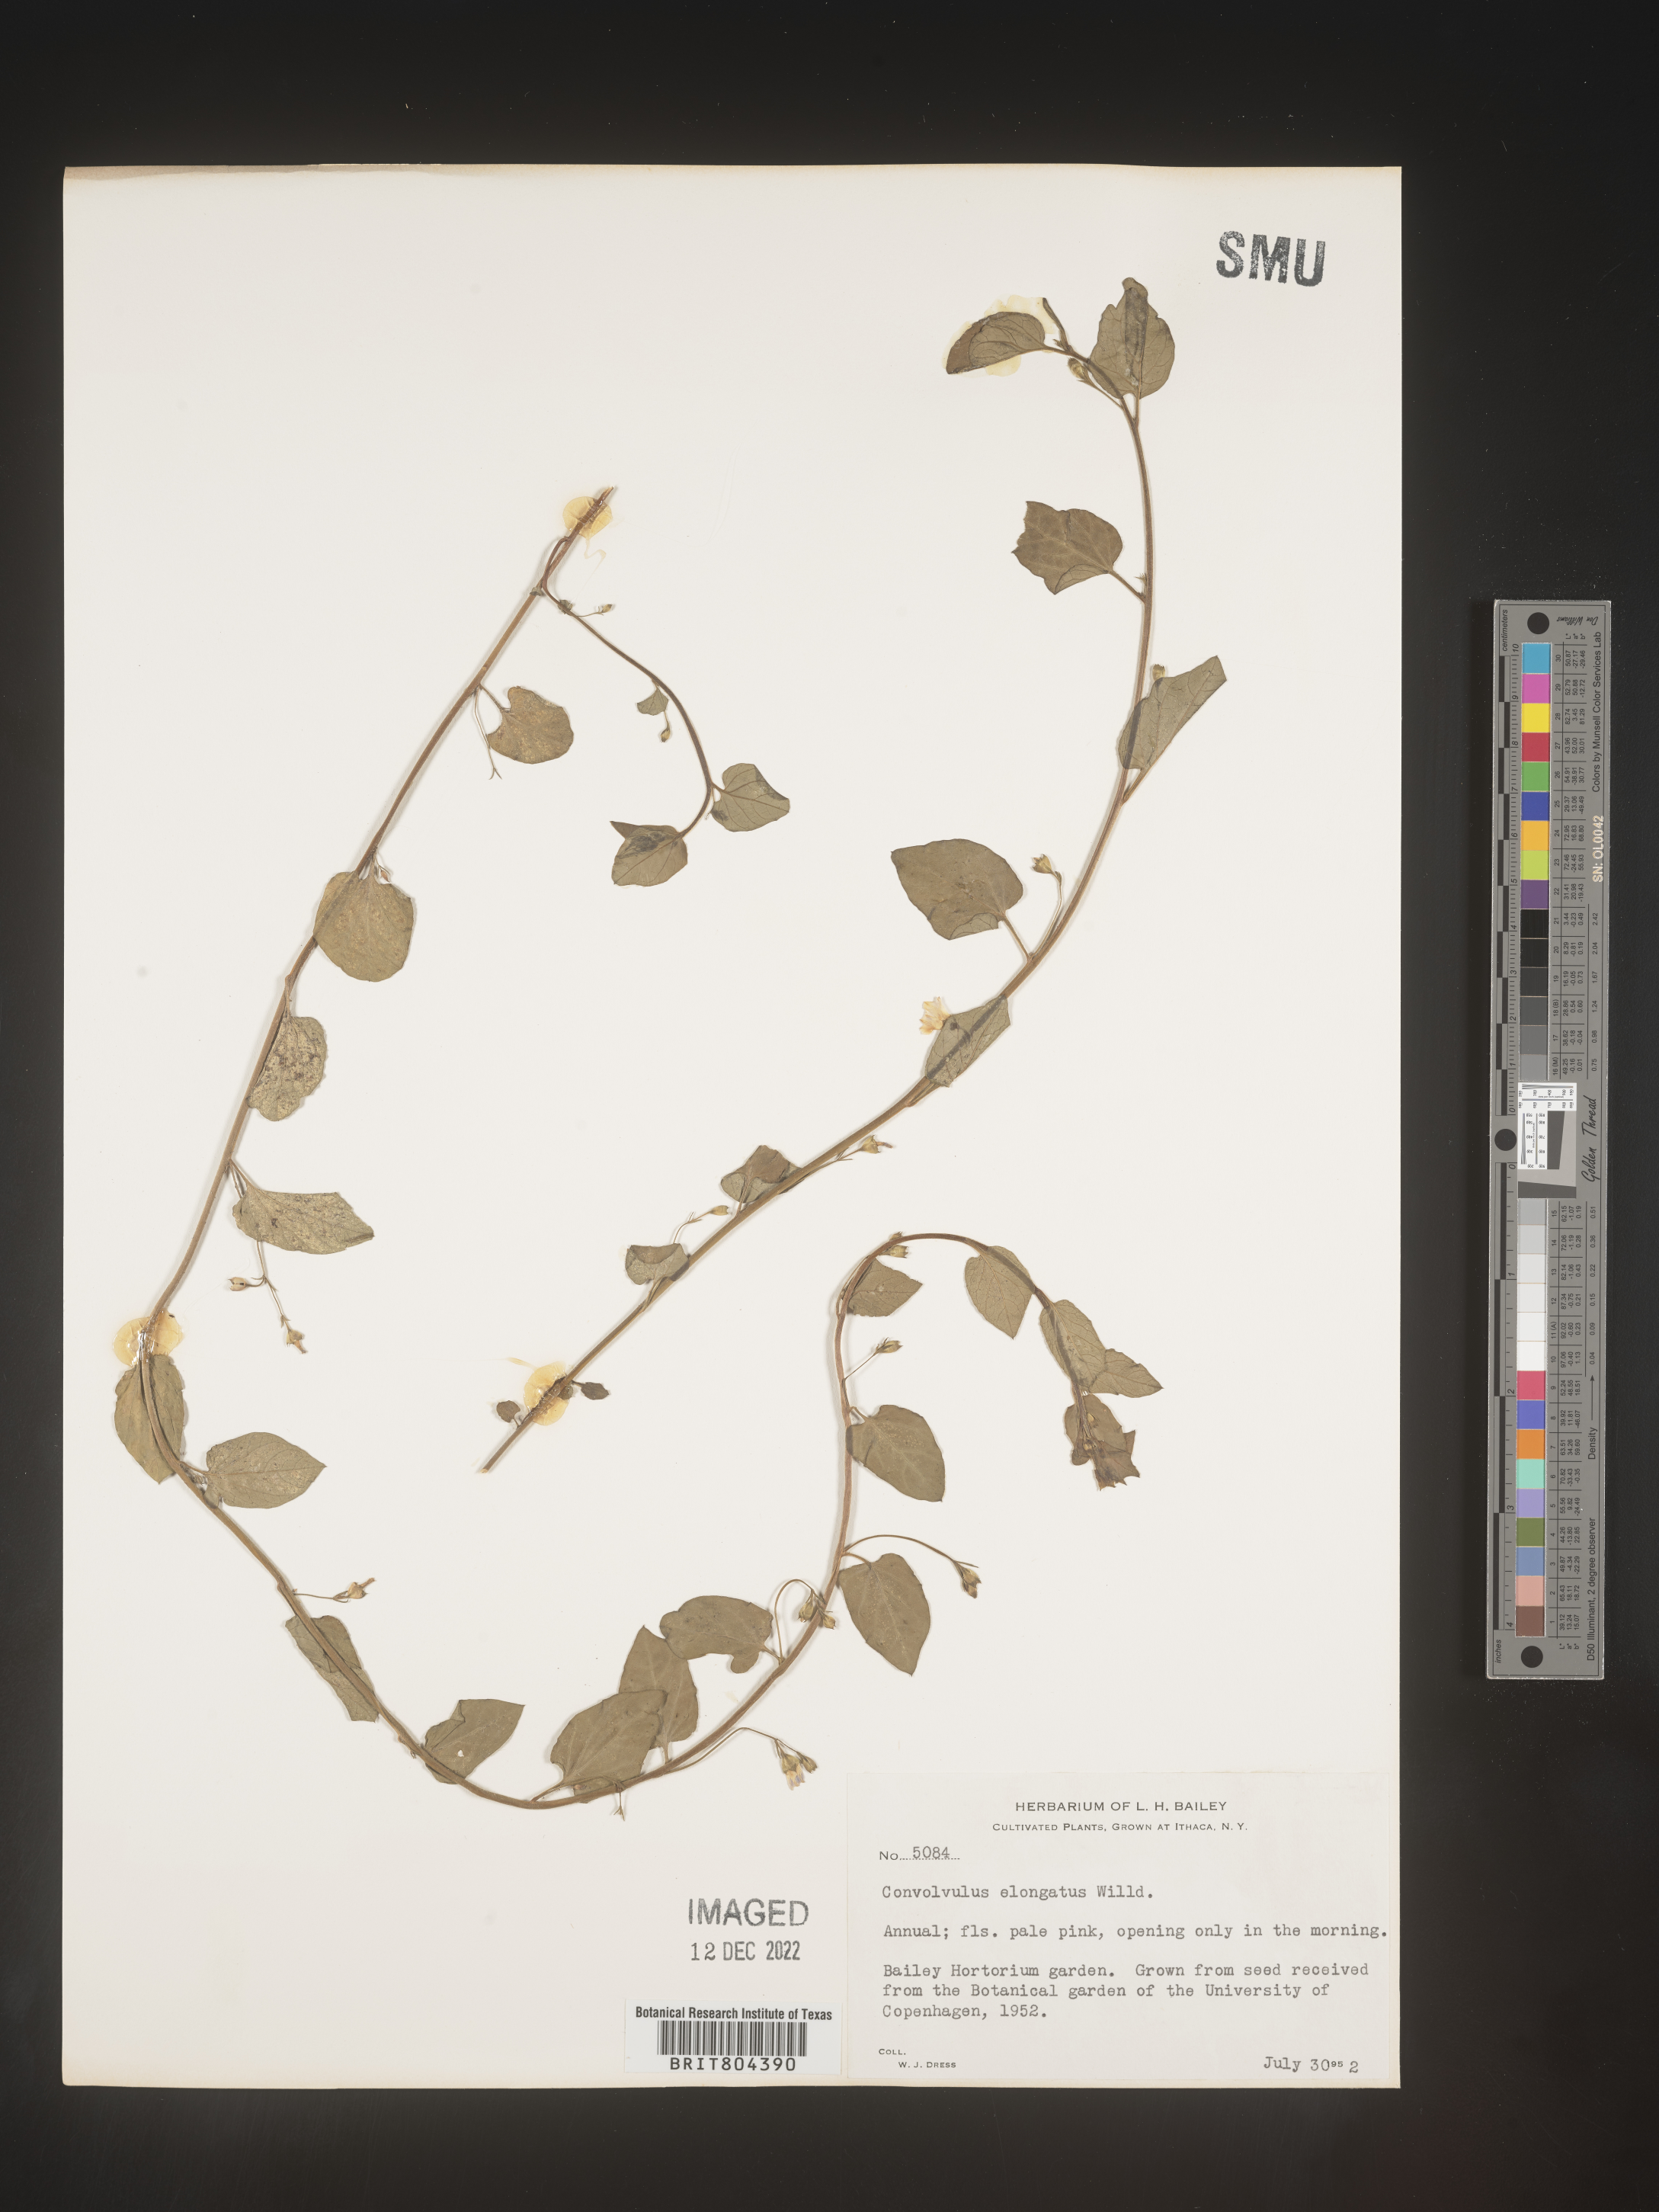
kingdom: Plantae
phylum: Tracheophyta
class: Magnoliopsida
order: Solanales
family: Convolvulaceae
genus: Convolvulus
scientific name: Convolvulus
